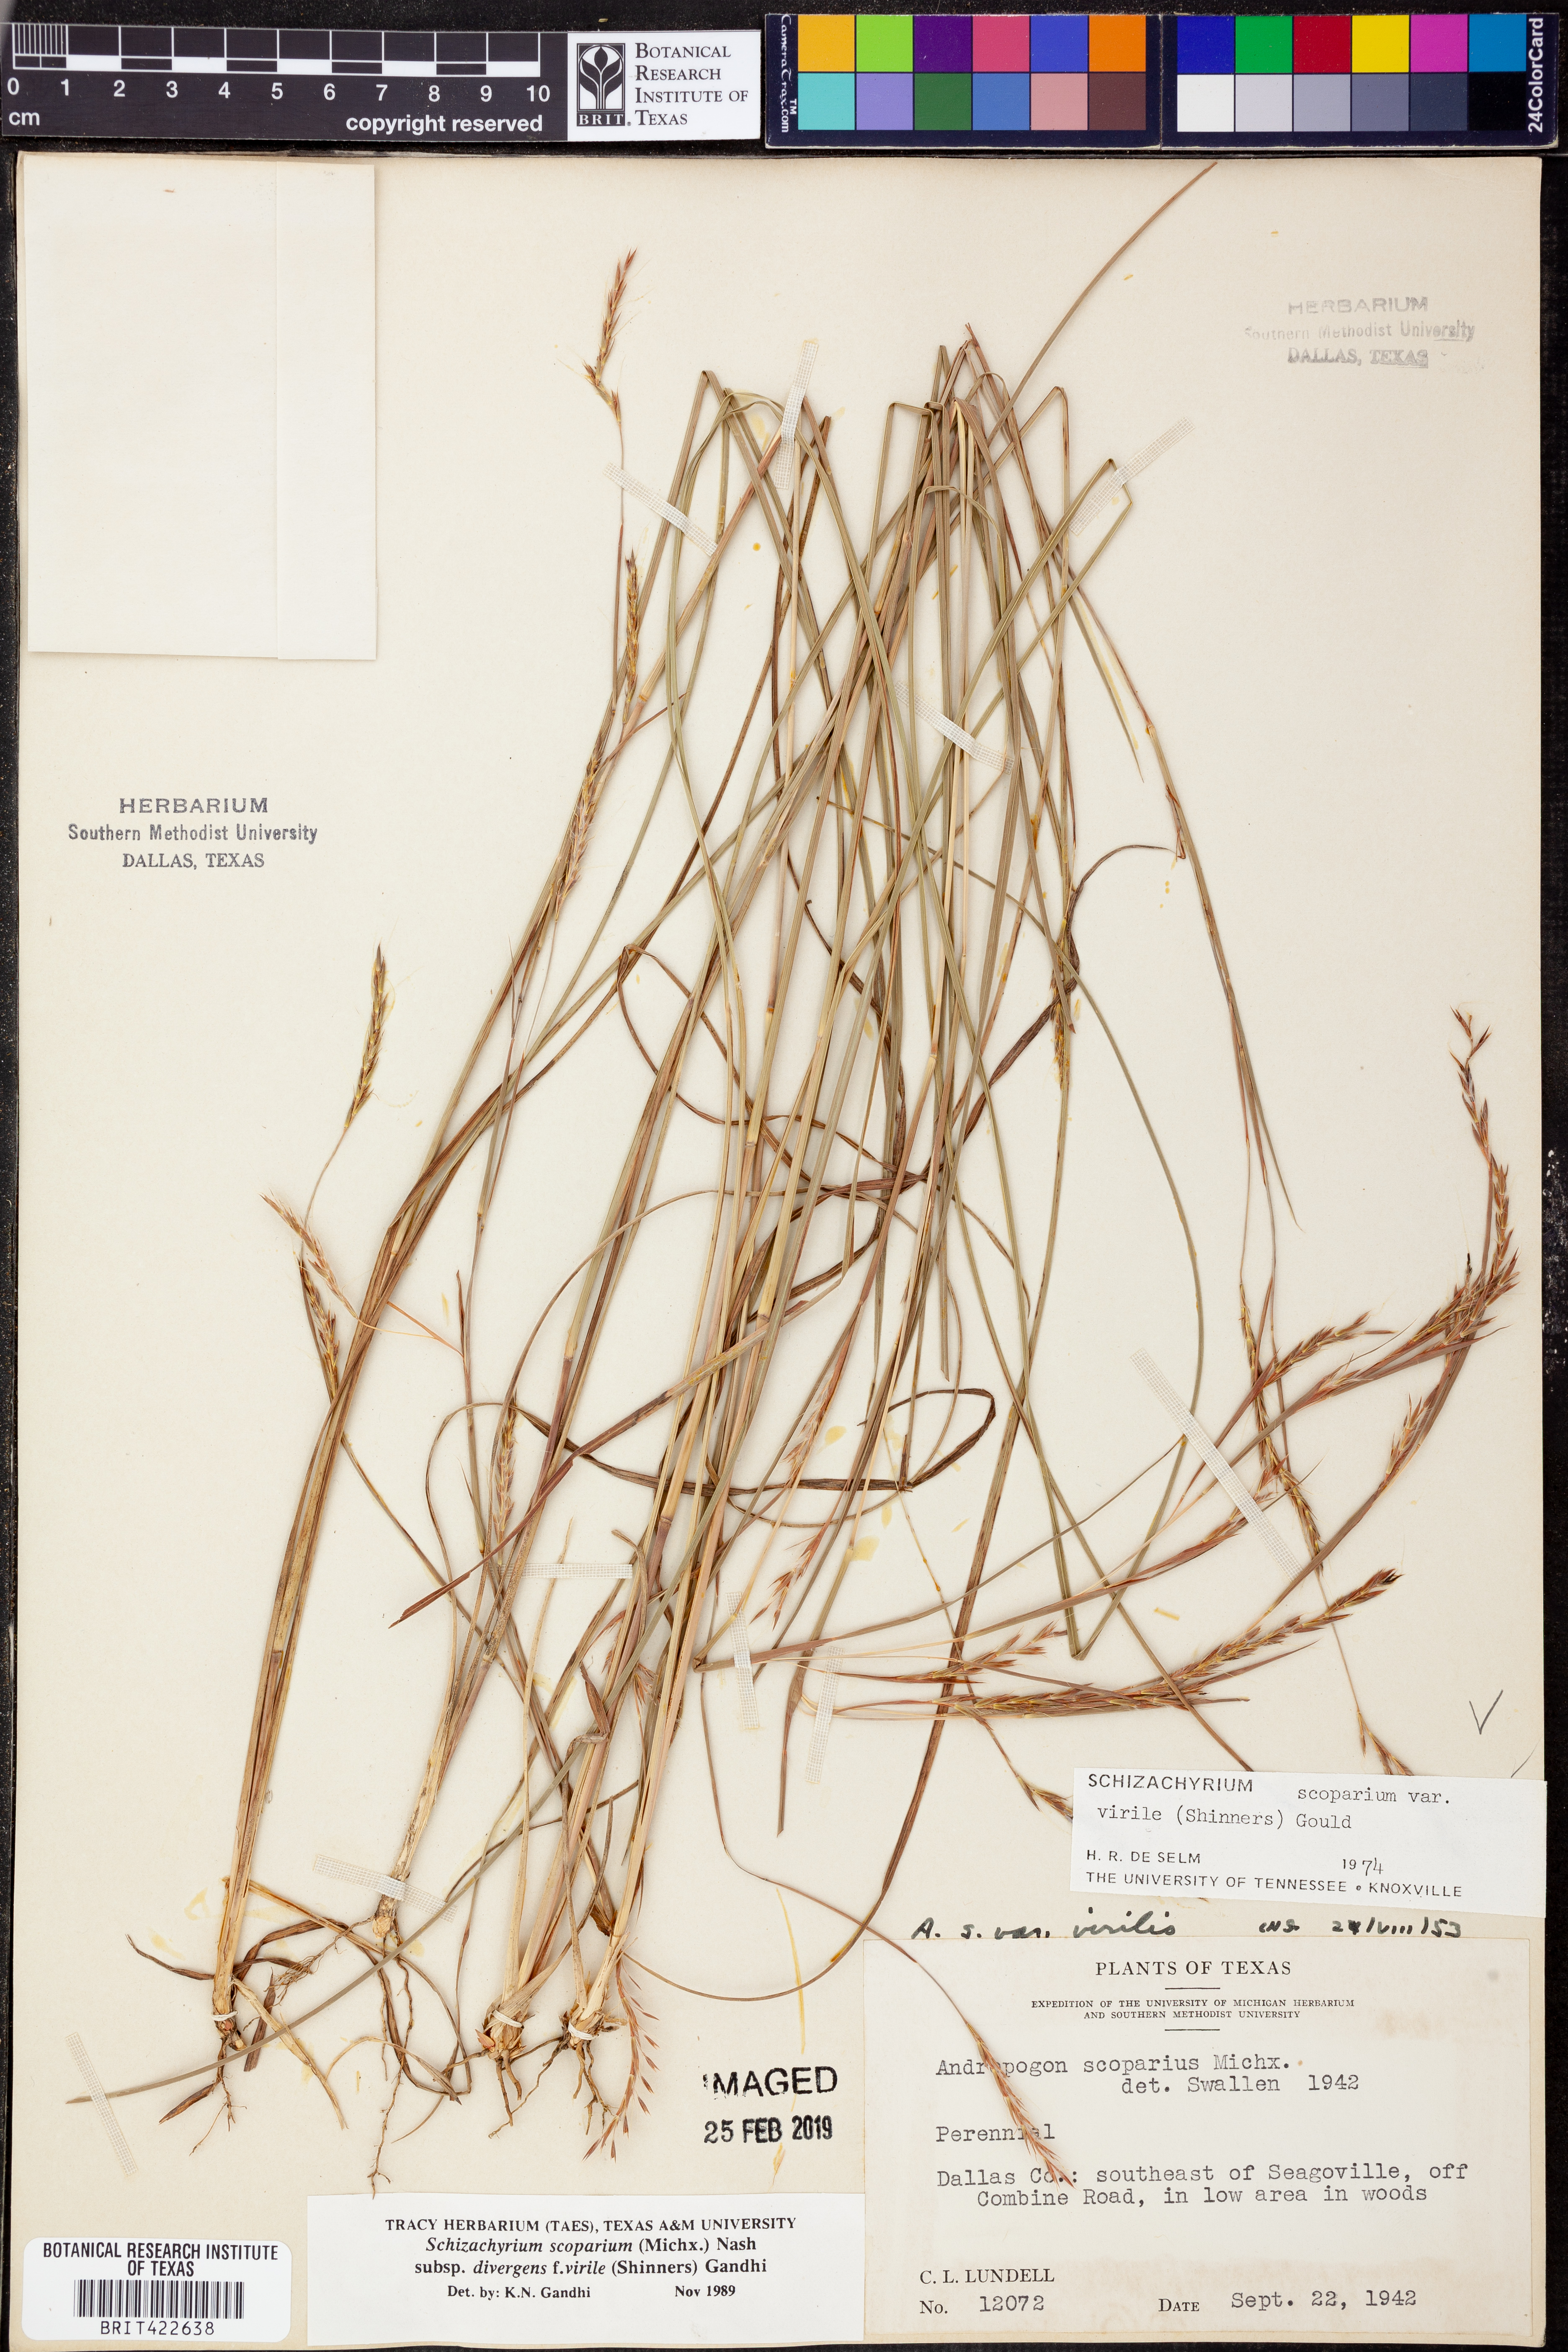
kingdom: Plantae
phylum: Tracheophyta
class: Liliopsida
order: Poales
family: Poaceae
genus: Schizachyrium
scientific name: Schizachyrium scoparium
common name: Little bluestem
